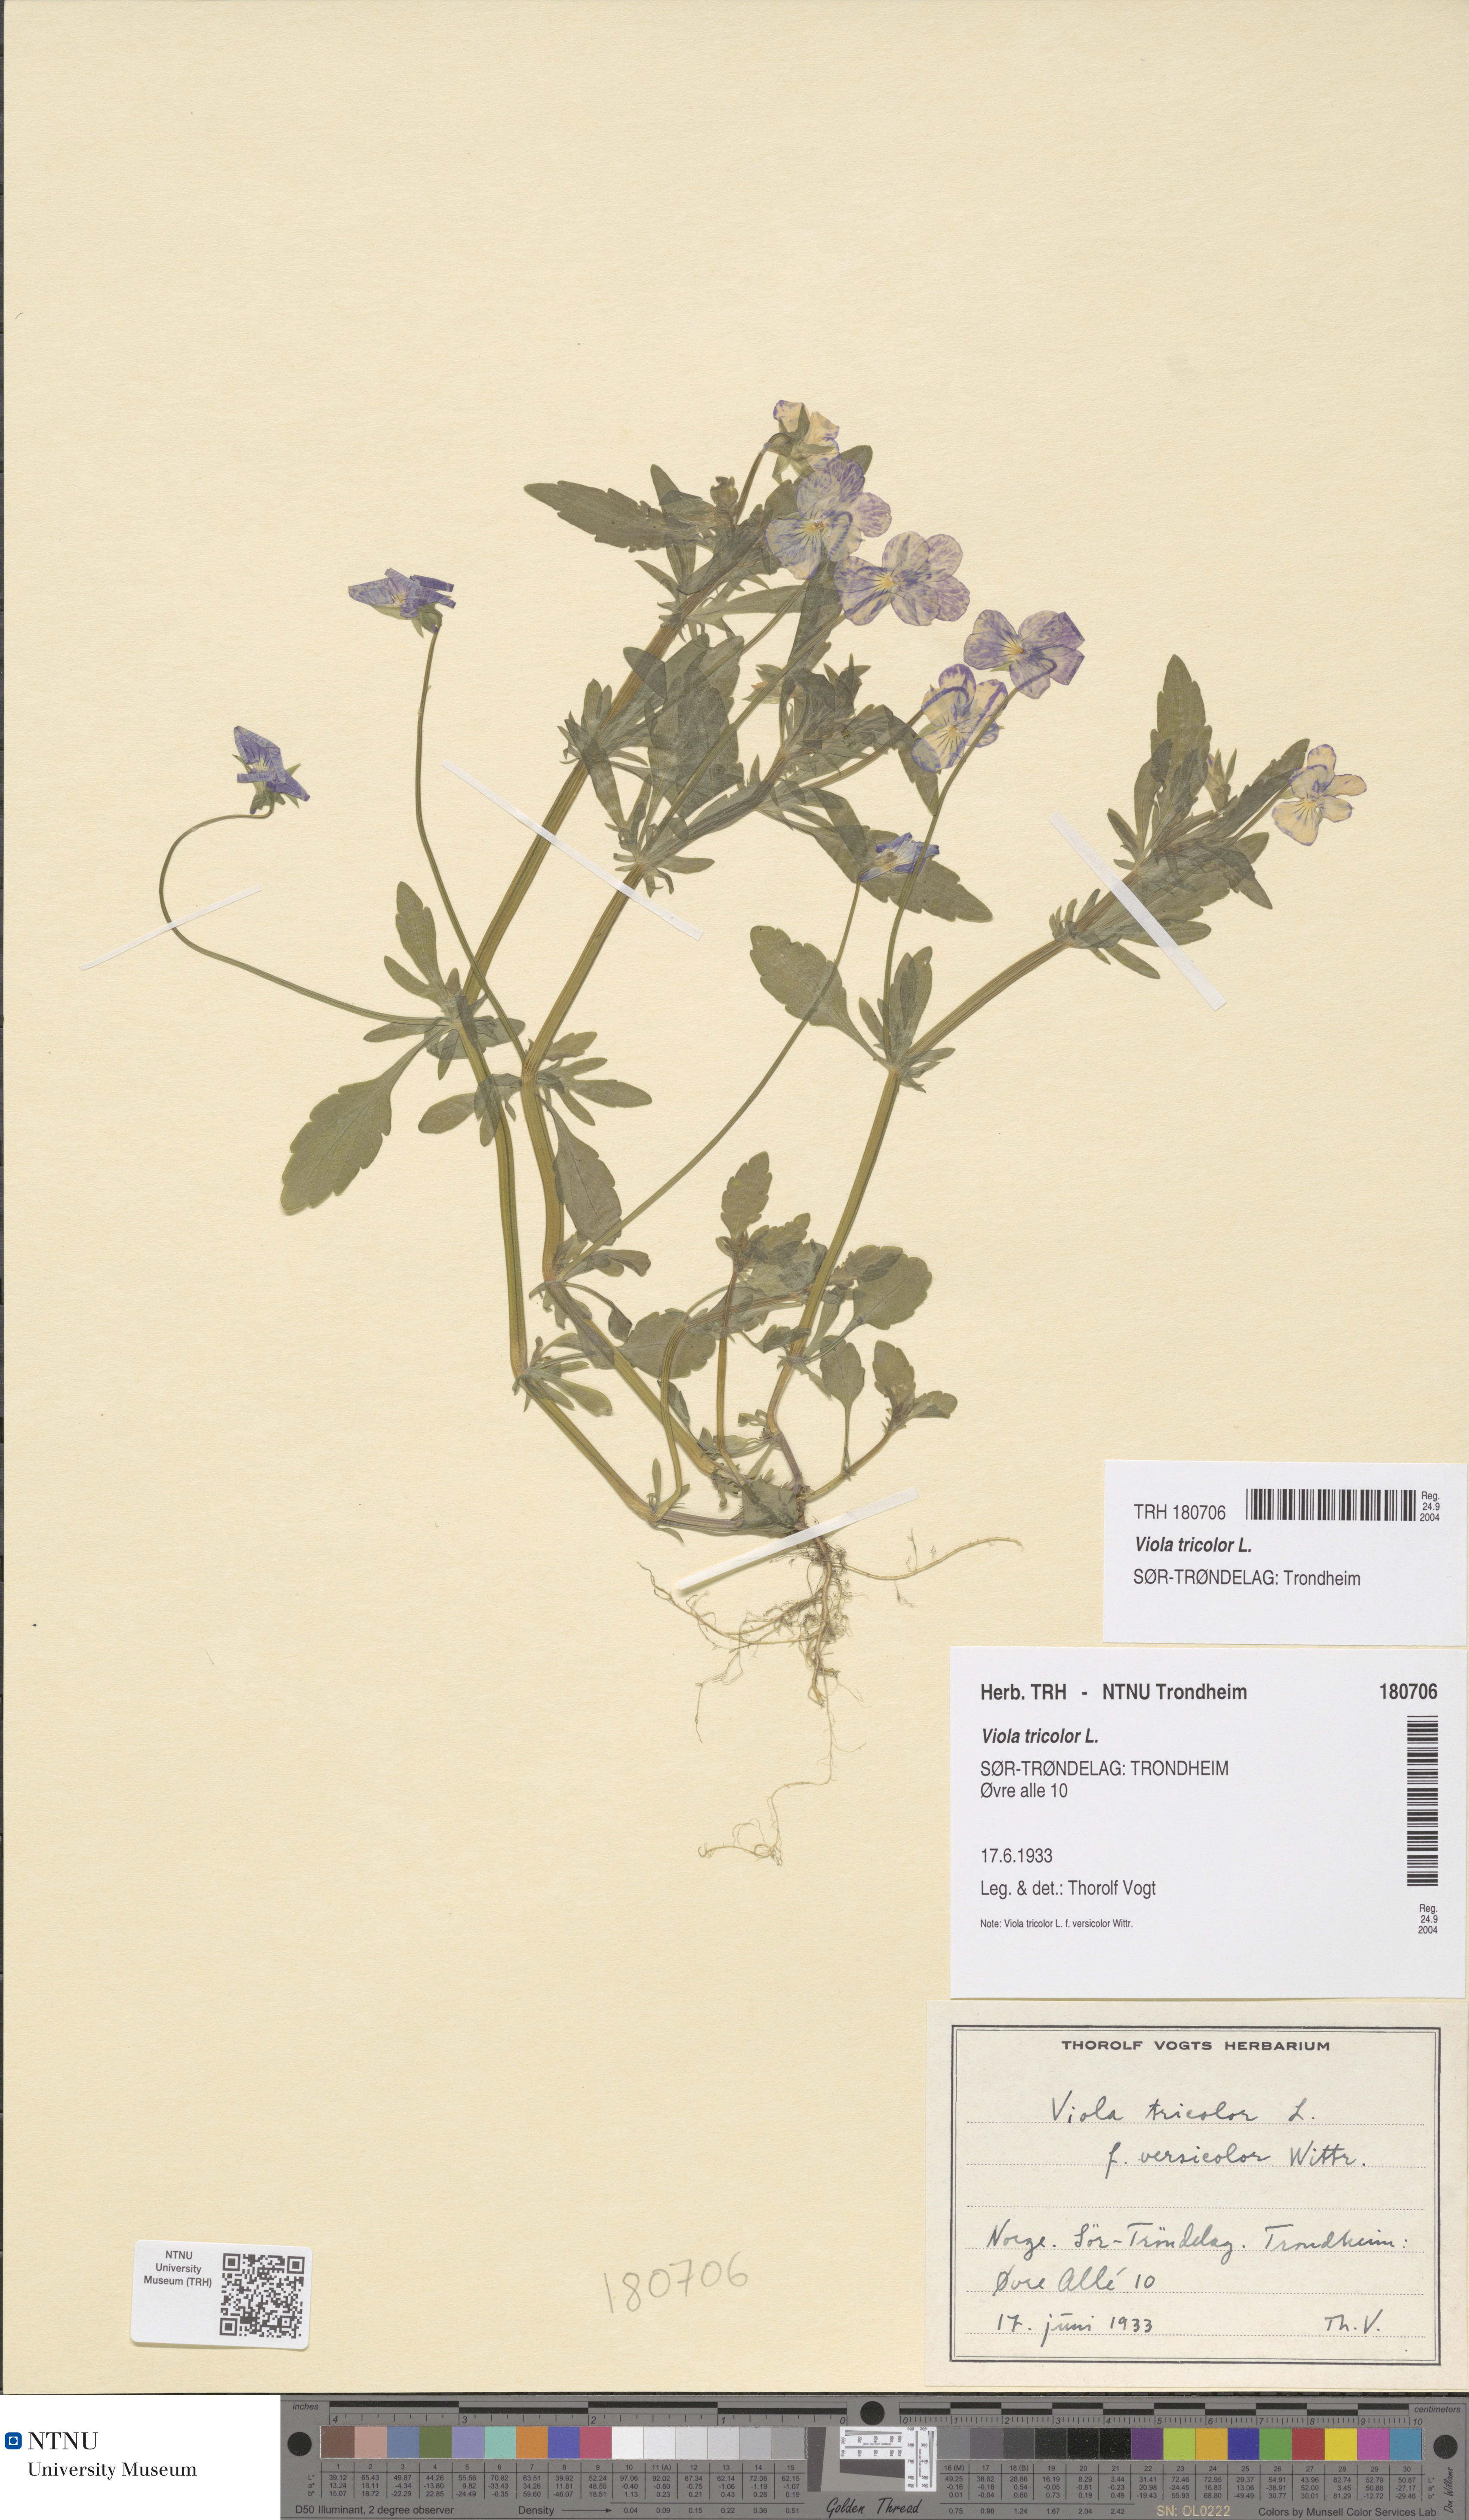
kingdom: Plantae
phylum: Tracheophyta
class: Magnoliopsida
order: Malpighiales
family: Violaceae
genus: Viola
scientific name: Viola tricolor
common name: Pansy
